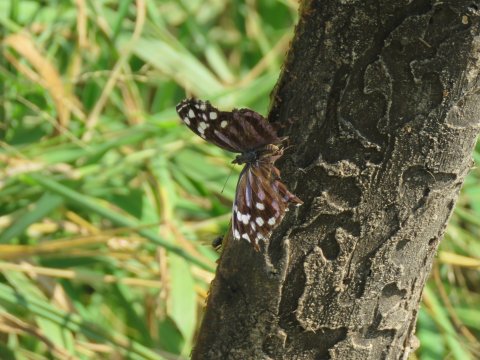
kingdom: Animalia
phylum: Arthropoda
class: Insecta
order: Lepidoptera
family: Nymphalidae
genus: Myscelia
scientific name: Myscelia ethusa
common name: Mexican Bluewing
